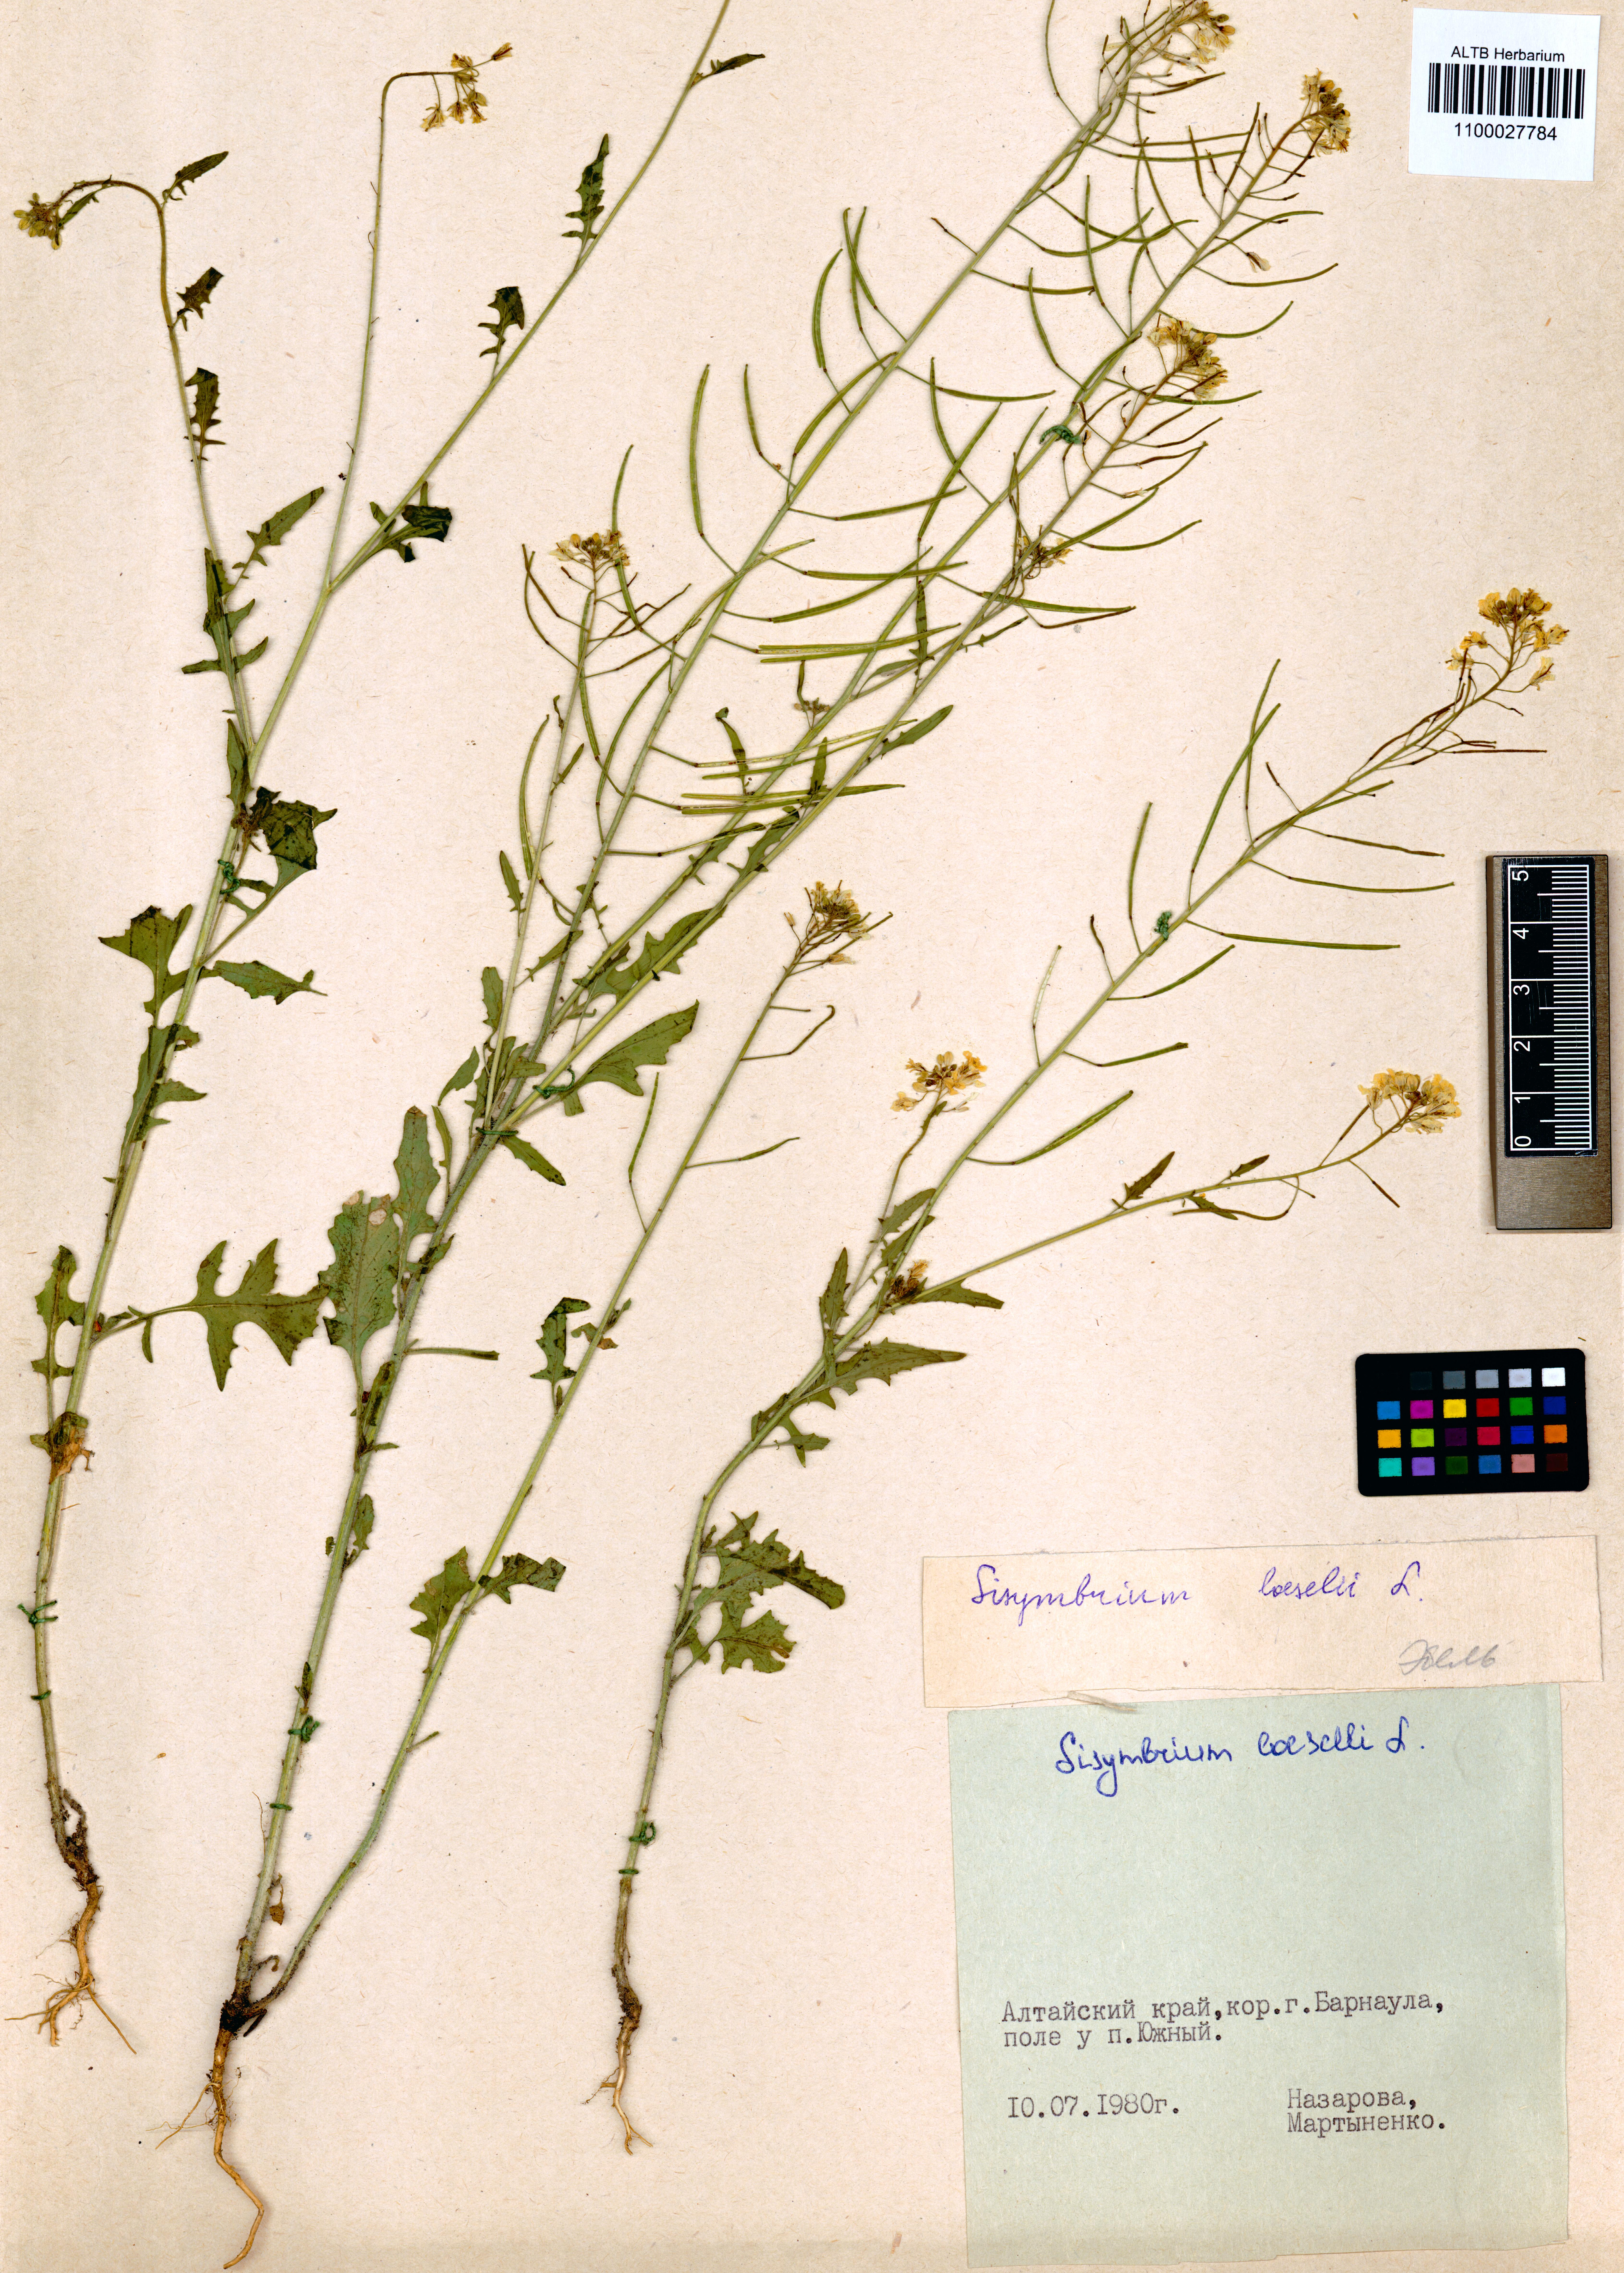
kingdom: Plantae
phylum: Tracheophyta
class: Magnoliopsida
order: Brassicales
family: Brassicaceae
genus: Sisymbrium
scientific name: Sisymbrium loeselii
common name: False london-rocket
